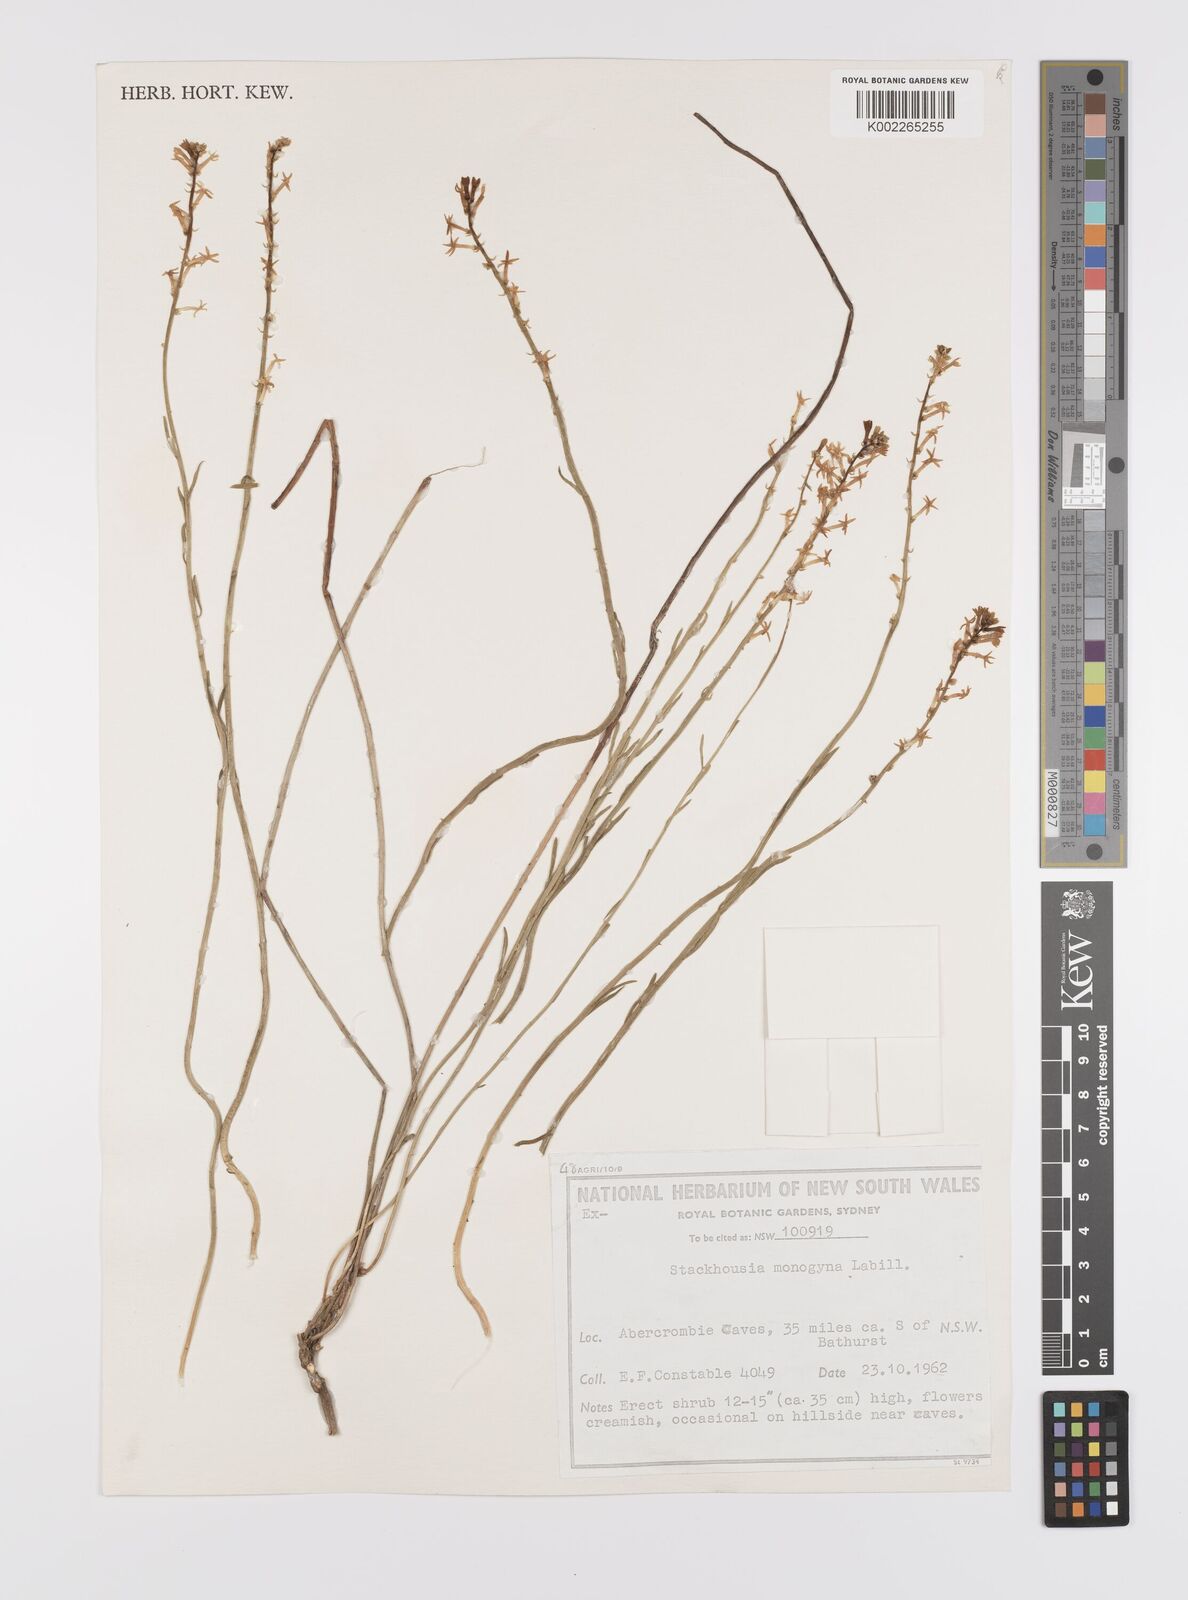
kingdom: Plantae
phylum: Tracheophyta
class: Magnoliopsida
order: Celastrales
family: Celastraceae
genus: Stackhousia
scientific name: Stackhousia monogyna
